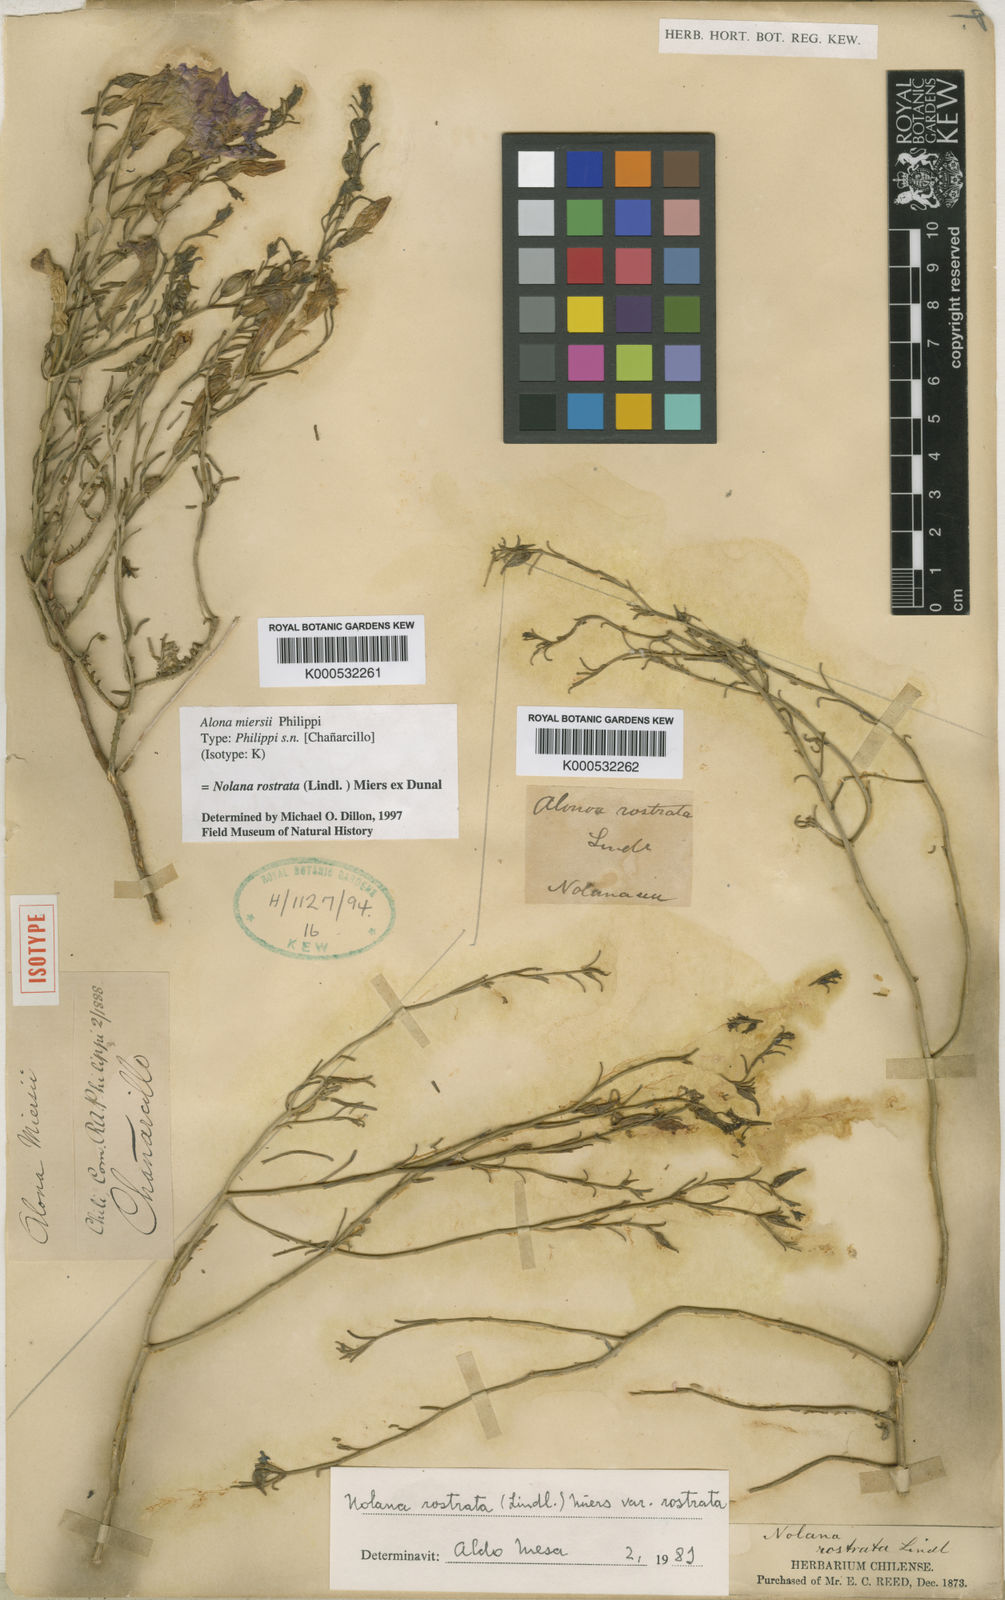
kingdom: Plantae
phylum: Tracheophyta
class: Magnoliopsida
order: Solanales
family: Solanaceae
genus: Nolana
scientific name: Nolana rostrata
